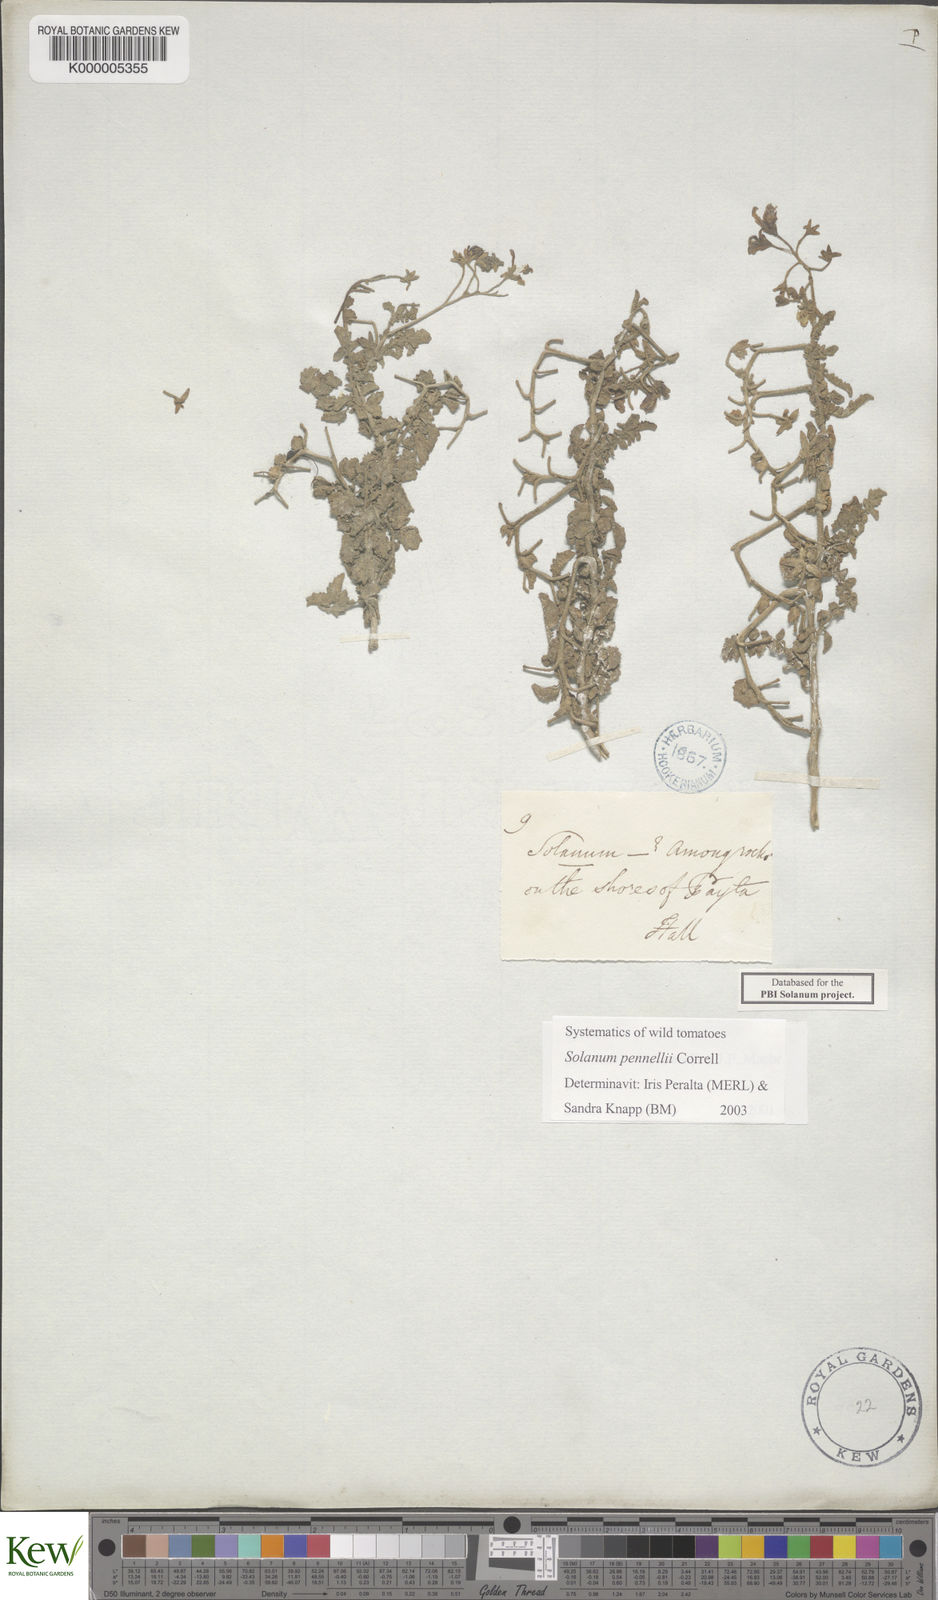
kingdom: Plantae
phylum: Tracheophyta
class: Magnoliopsida
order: Solanales
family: Solanaceae
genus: Solanum
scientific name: Solanum pennellii
